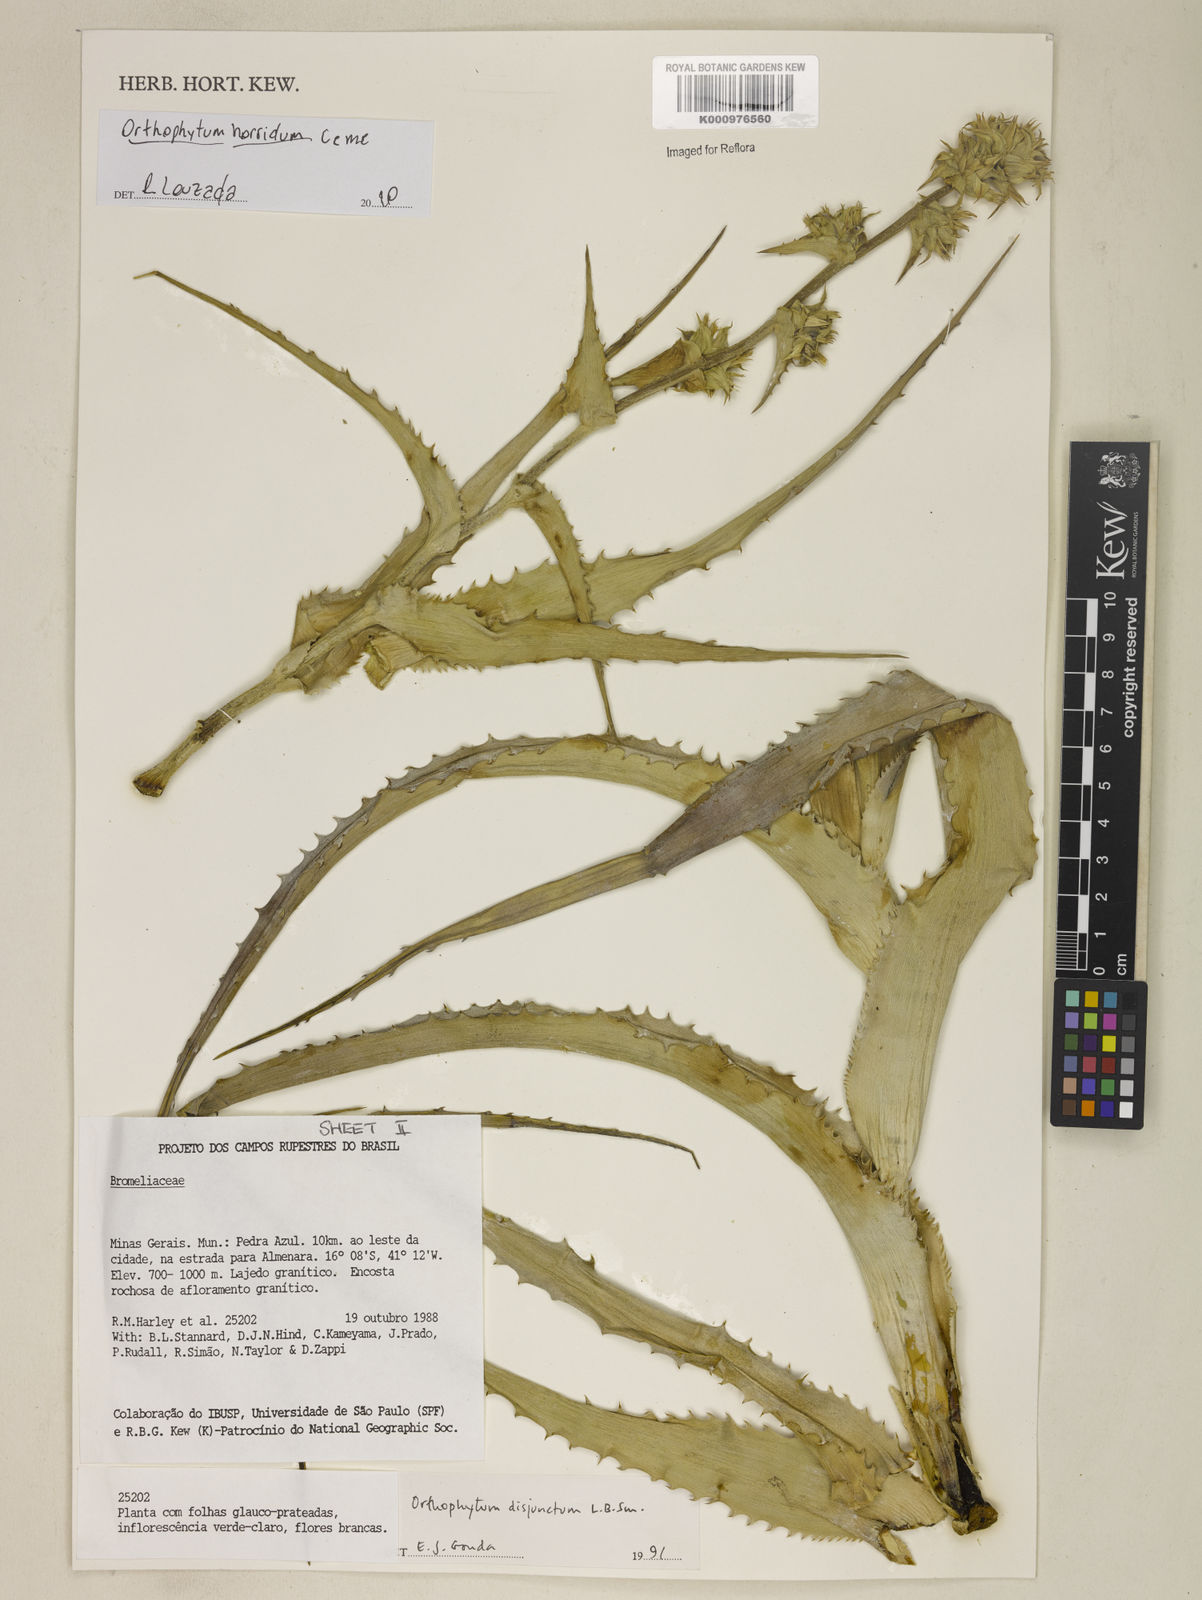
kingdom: Plantae
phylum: Tracheophyta
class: Liliopsida
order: Poales
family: Bromeliaceae
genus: Orthophytum
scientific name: Orthophytum disjunctum
